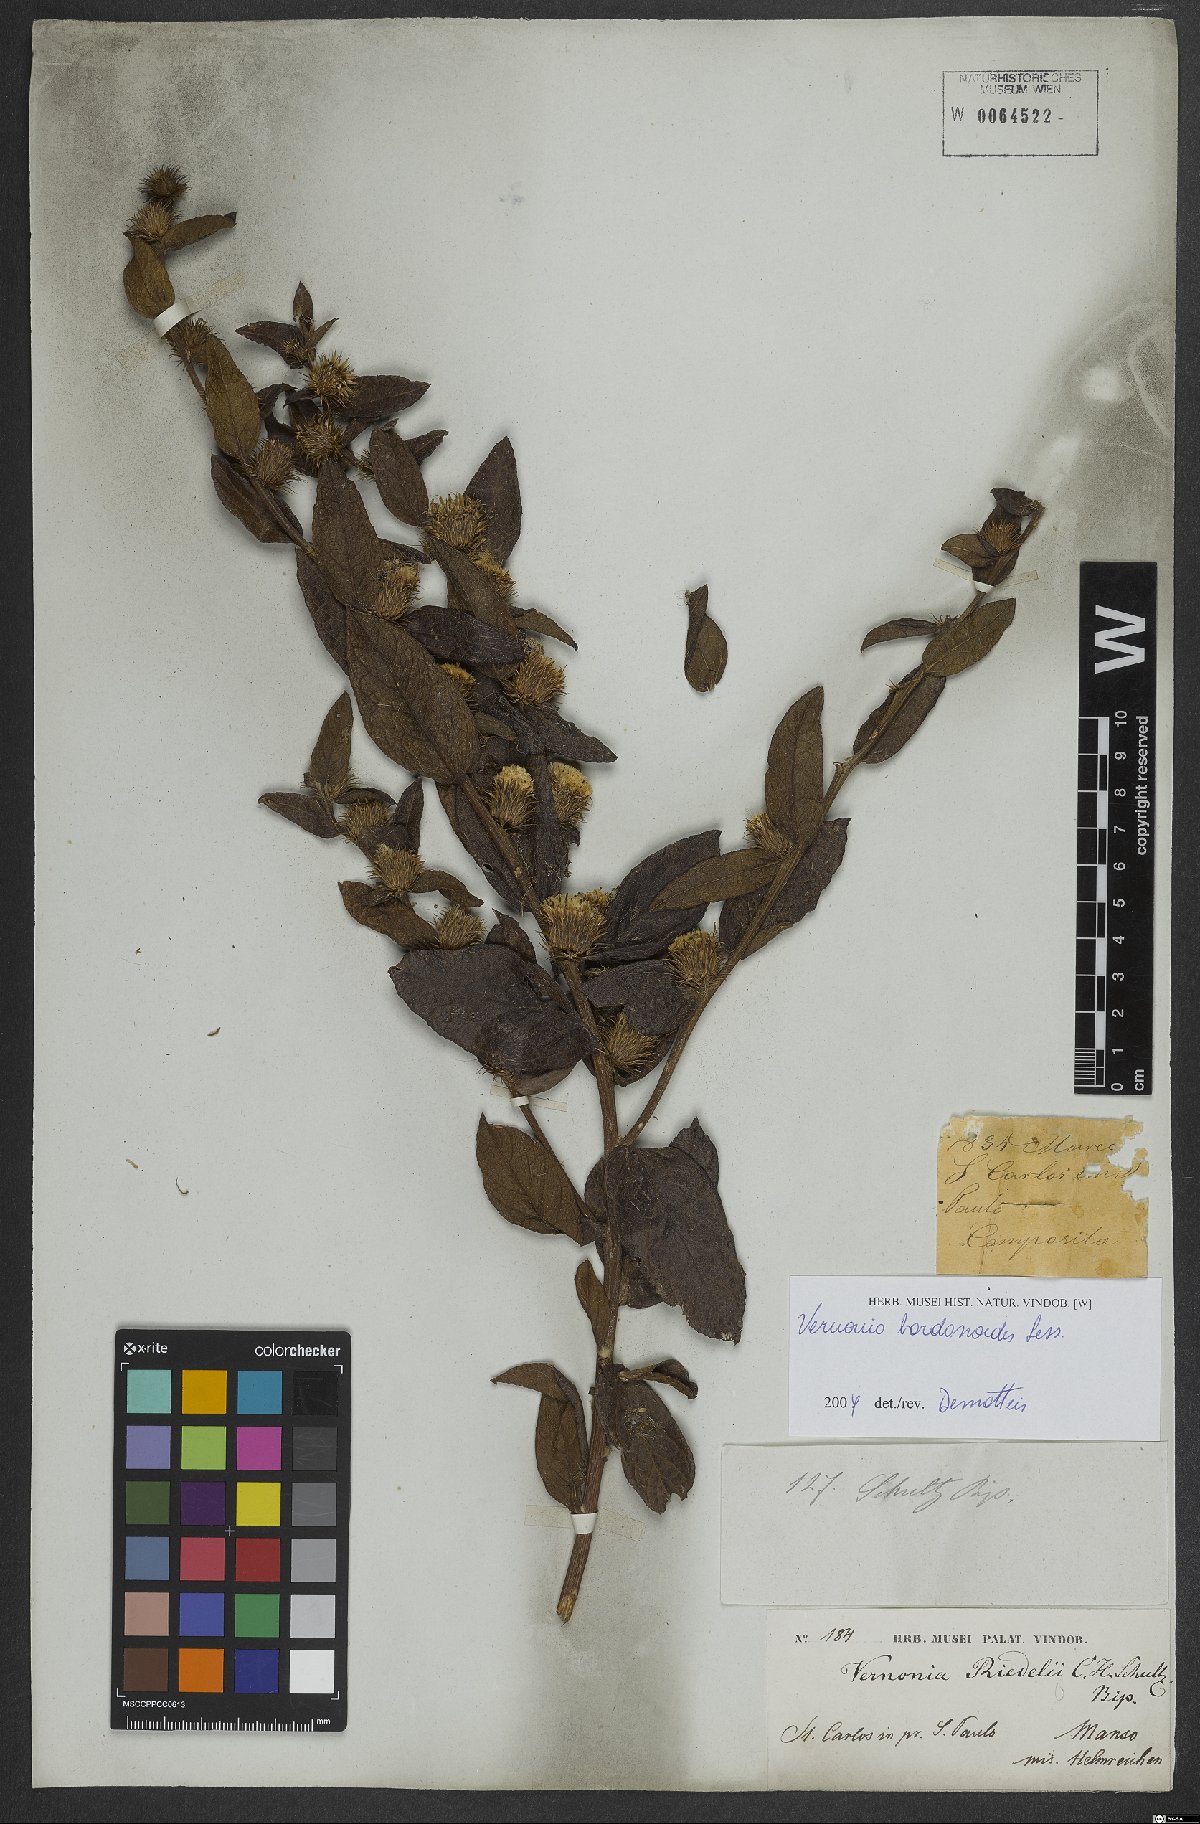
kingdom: Plantae
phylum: Tracheophyta
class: Magnoliopsida
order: Asterales
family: Asteraceae
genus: Lessingianthus
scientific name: Lessingianthus bardanioides
